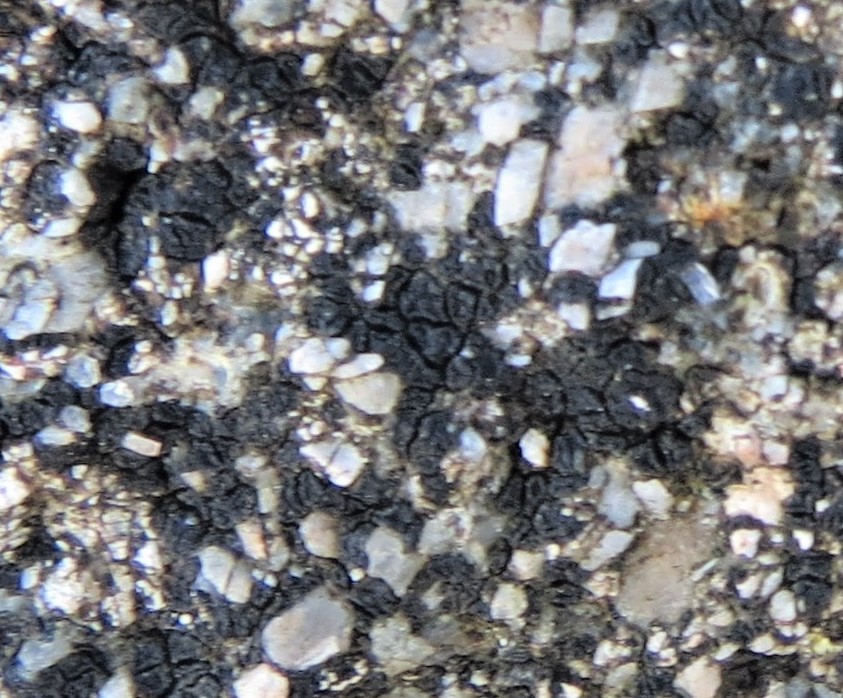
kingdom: Fungi
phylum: Ascomycota
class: Lecanoromycetes
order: Acarosporales
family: Acarosporaceae
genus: Acarospora
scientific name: Acarospora privigna
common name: sort foldekantlav
